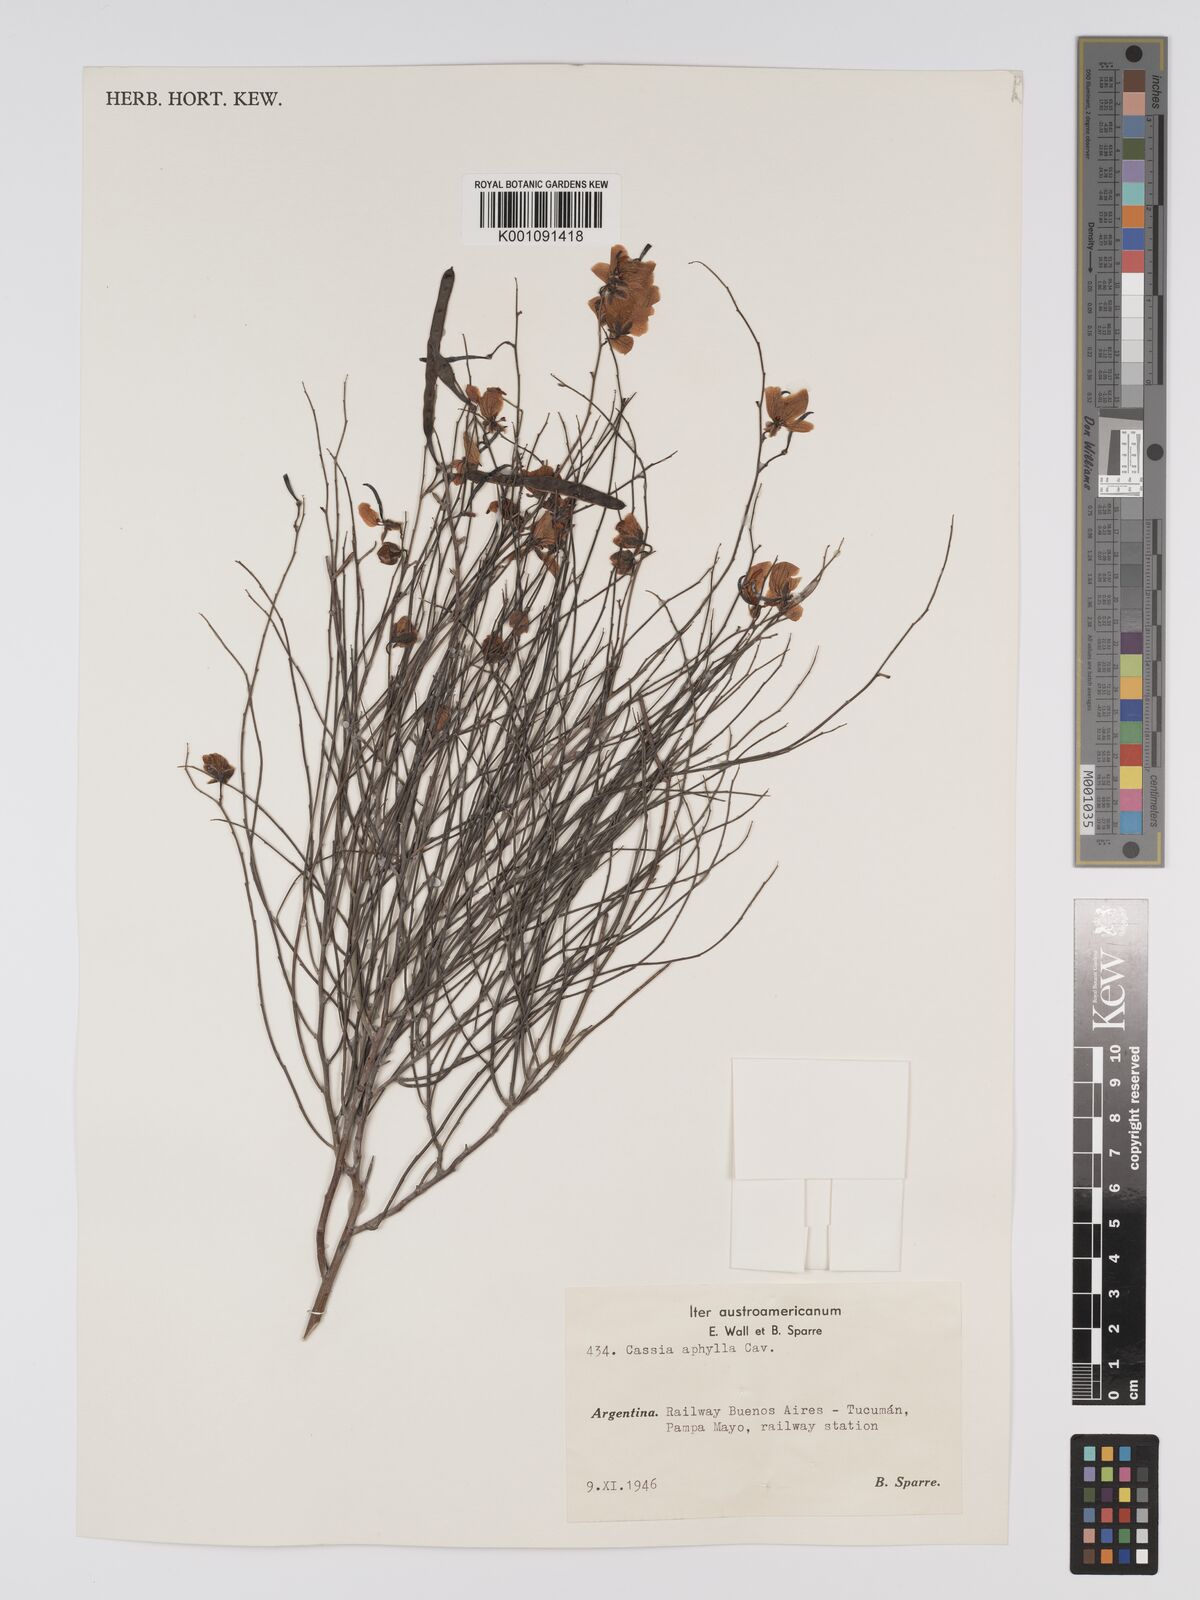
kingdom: Plantae
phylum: Tracheophyta
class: Magnoliopsida
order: Fabales
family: Fabaceae
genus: Senna
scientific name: Senna aphylla
